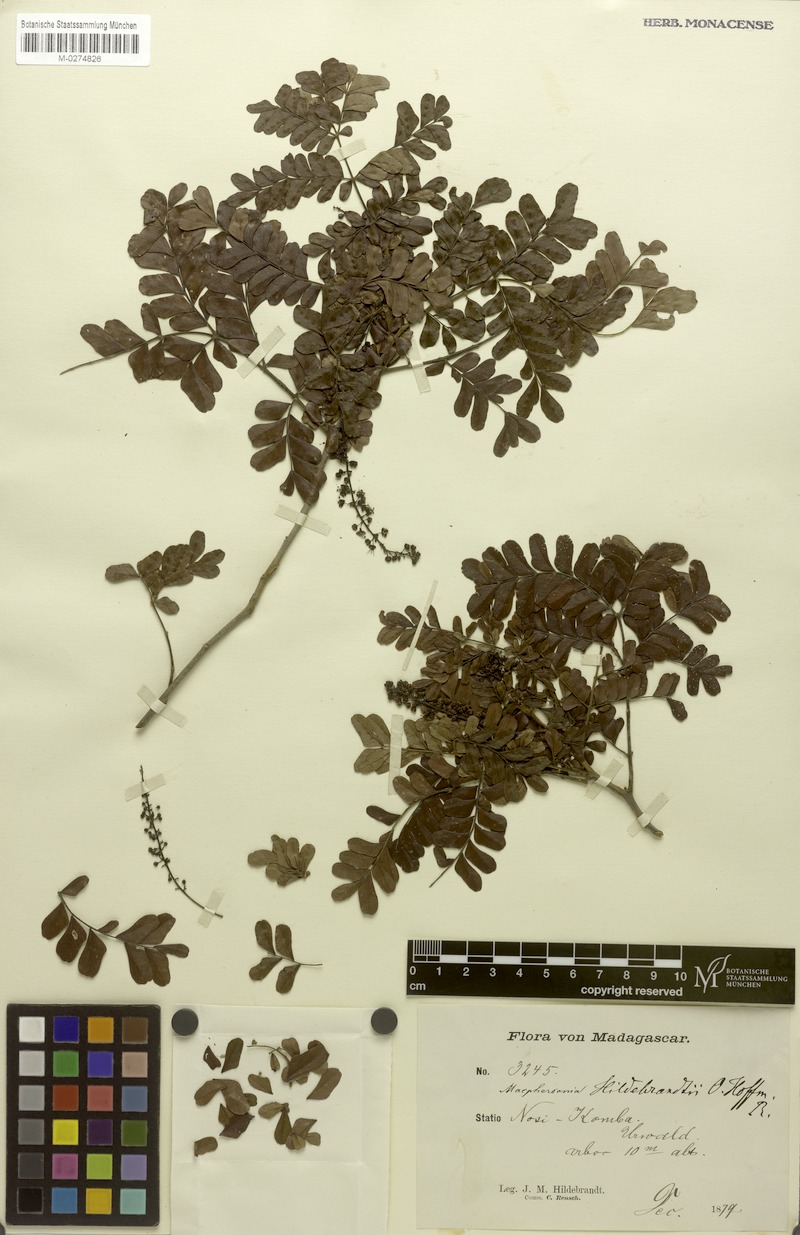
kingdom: Plantae
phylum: Tracheophyta
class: Magnoliopsida
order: Sapindales
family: Sapindaceae
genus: Macphersonia
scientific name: Macphersonia gracilis
